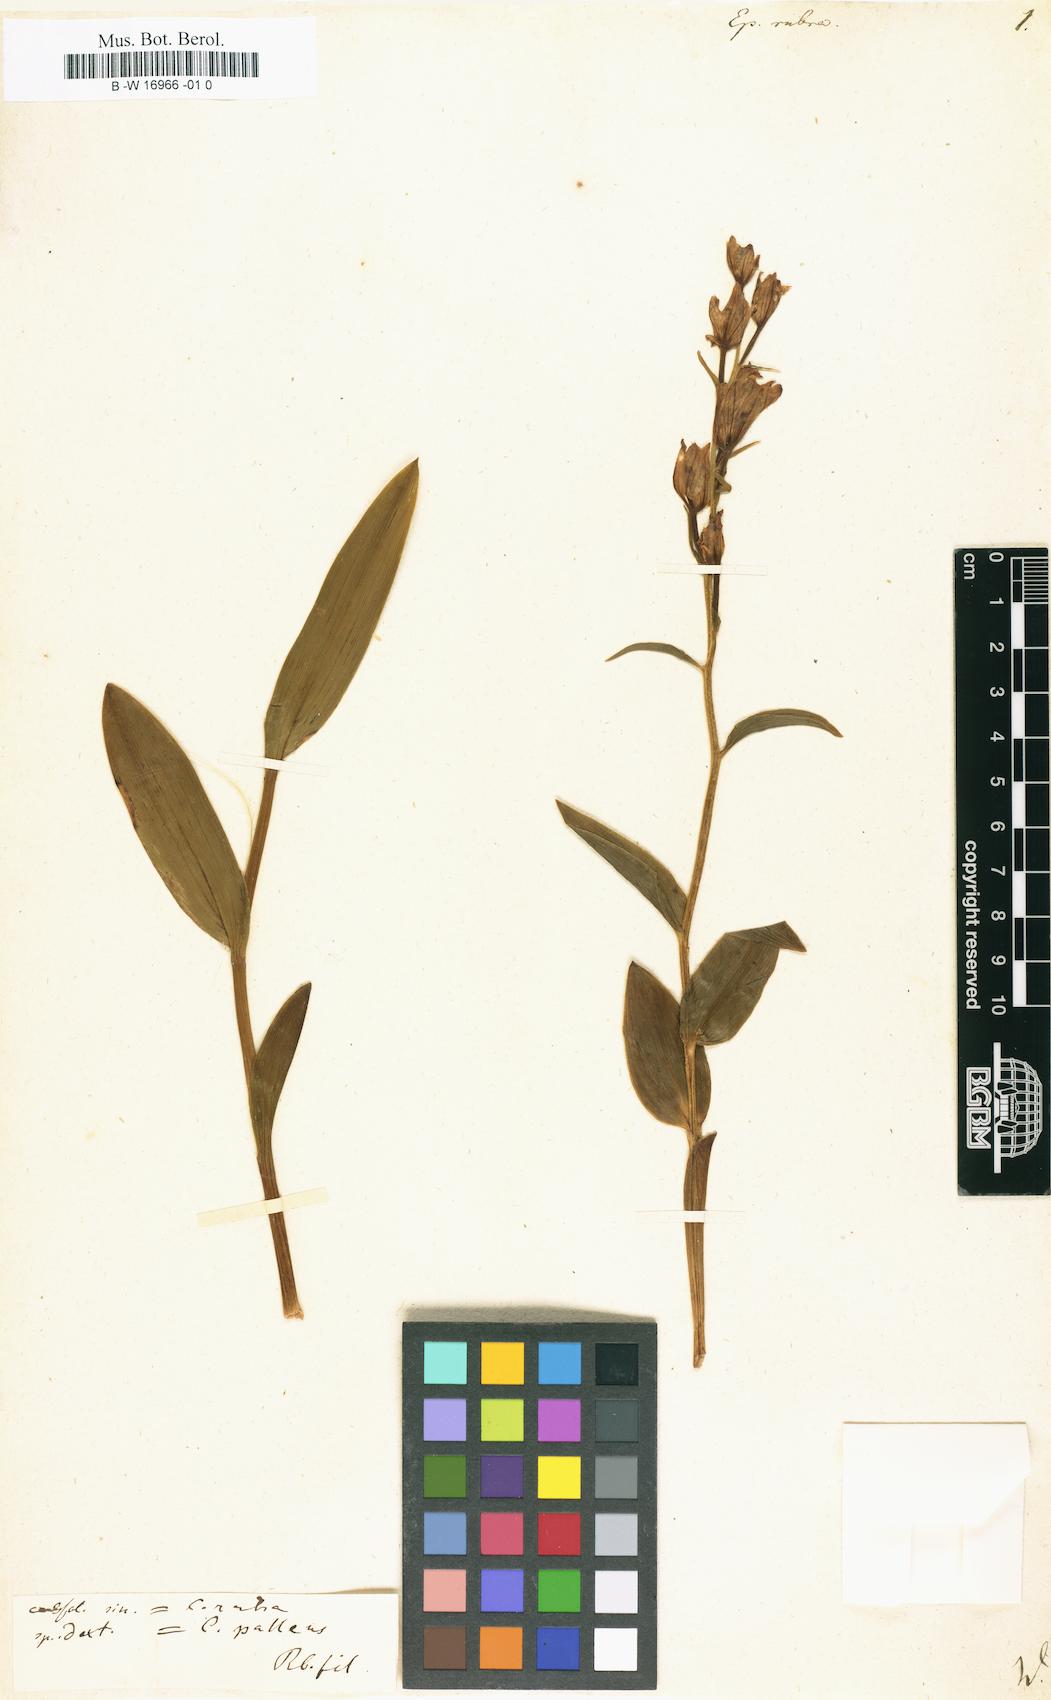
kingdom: Plantae
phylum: Tracheophyta
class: Liliopsida
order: Asparagales
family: Orchidaceae
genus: Cephalanthera
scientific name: Cephalanthera rubra
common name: Red helleborine
